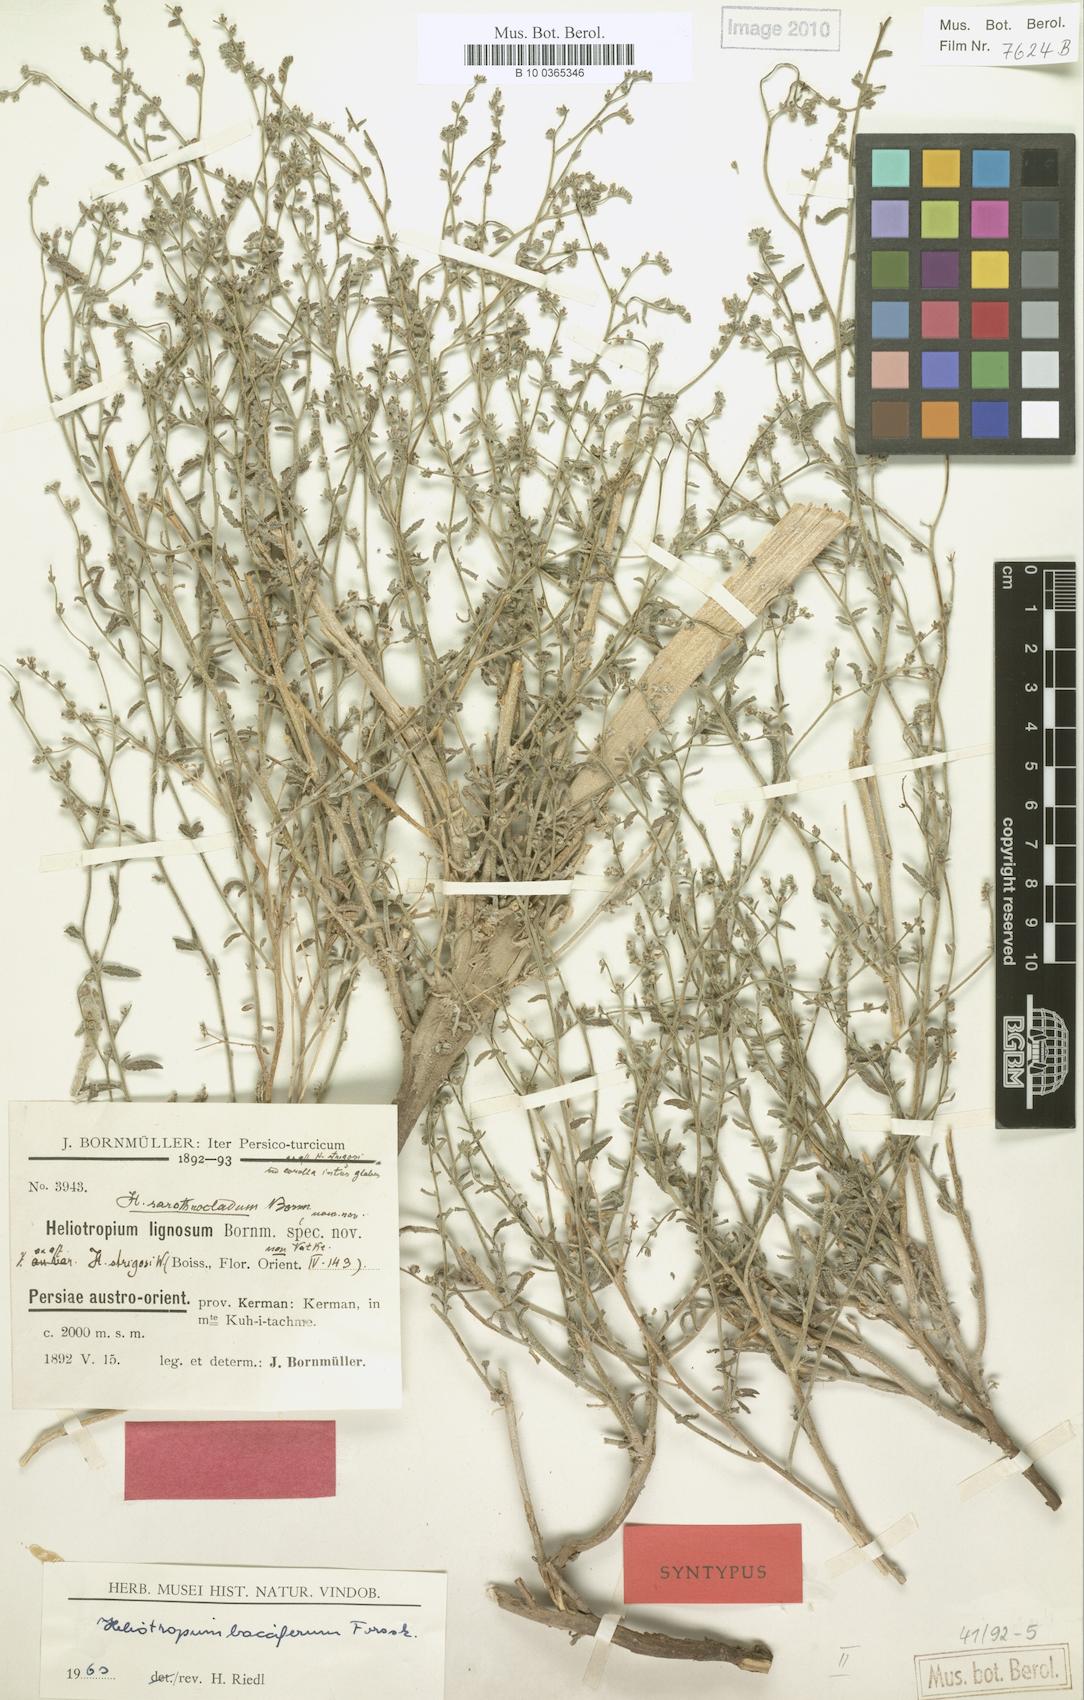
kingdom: Plantae
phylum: Tracheophyta
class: Magnoliopsida
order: Boraginales
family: Heliotropiaceae
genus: Heliotropium
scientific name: Heliotropium bacciferum
